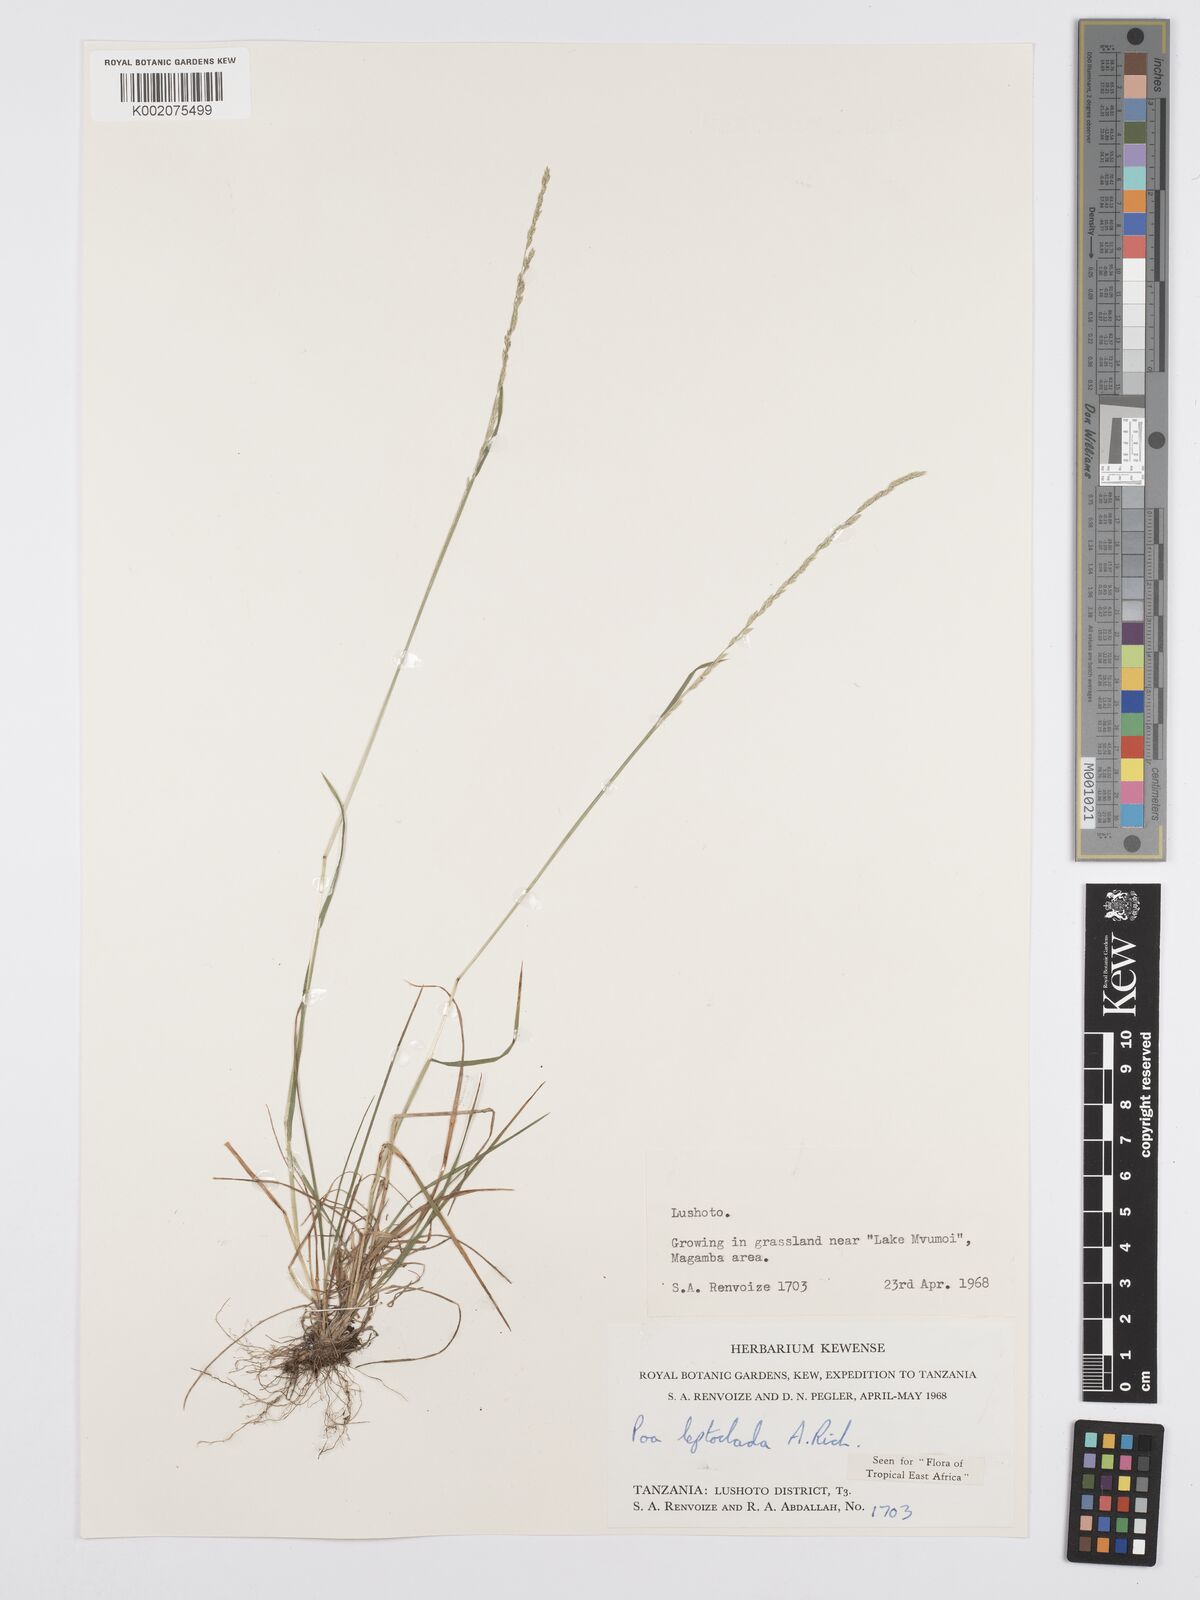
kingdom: Plantae
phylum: Tracheophyta
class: Liliopsida
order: Poales
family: Poaceae
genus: Poa
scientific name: Poa leptoclada
